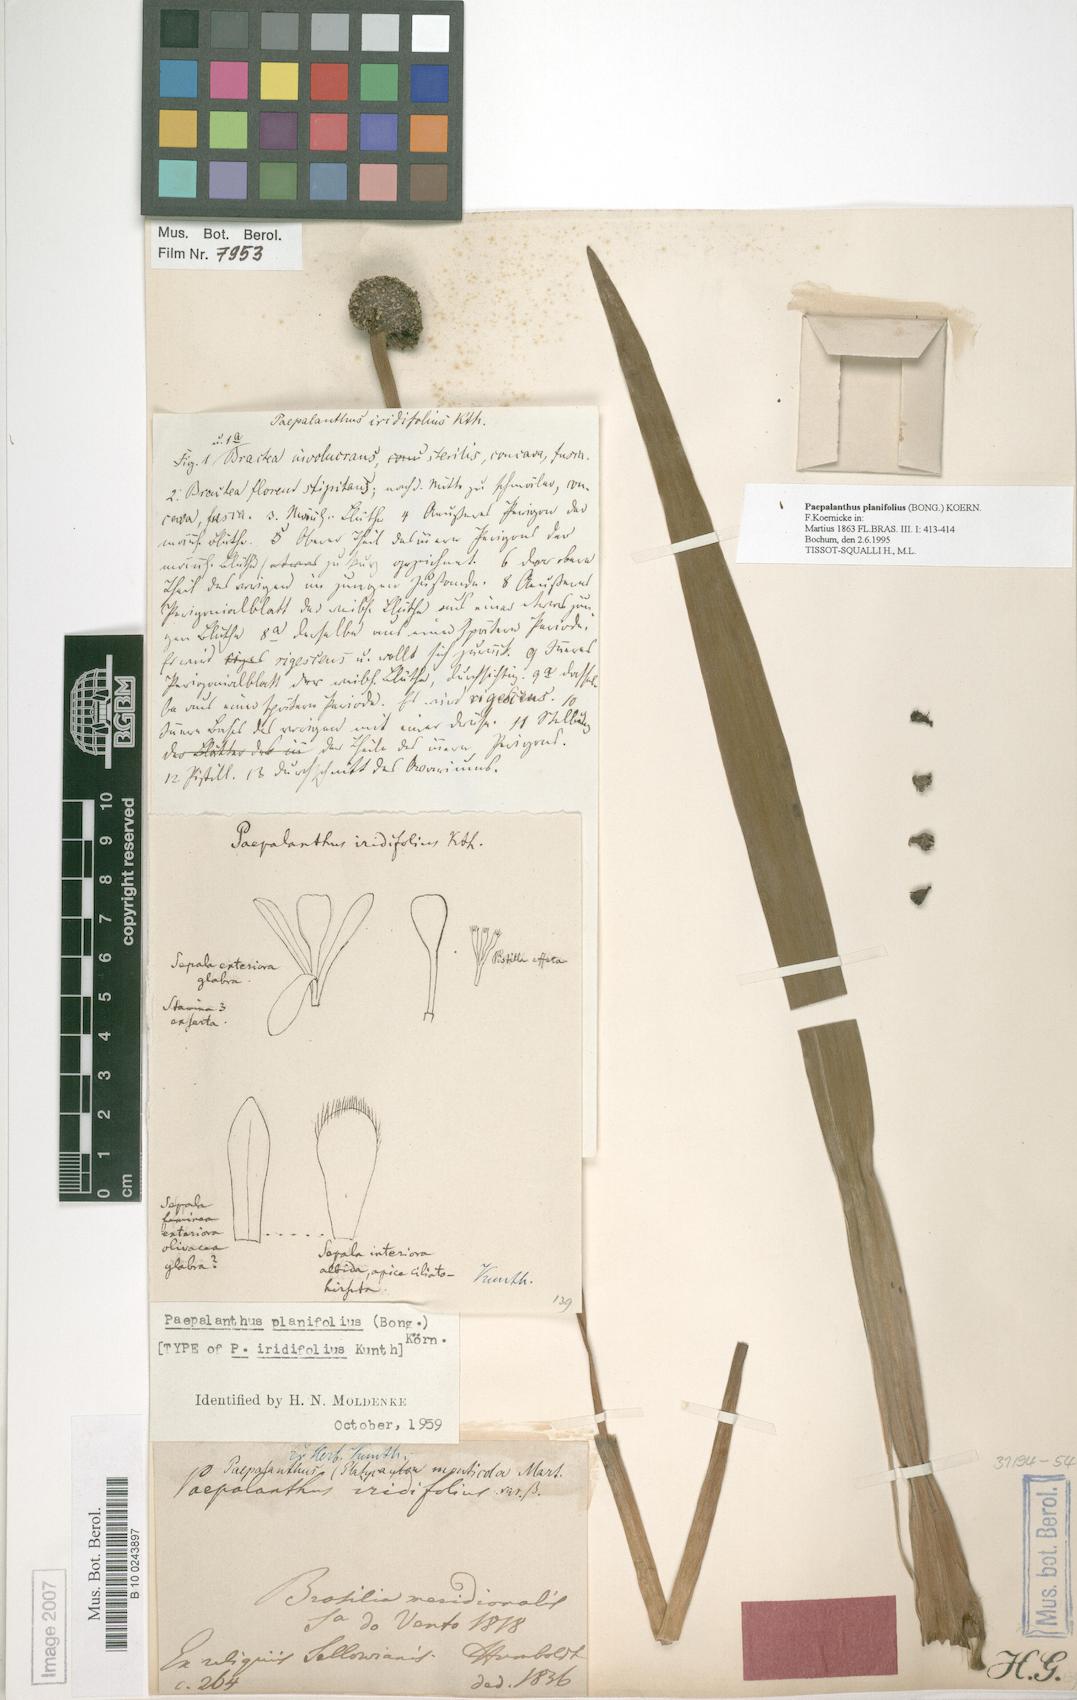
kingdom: Plantae
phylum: Tracheophyta
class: Liliopsida
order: Poales
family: Eriocaulaceae
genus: Paepalanthus
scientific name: Paepalanthus planifolius
